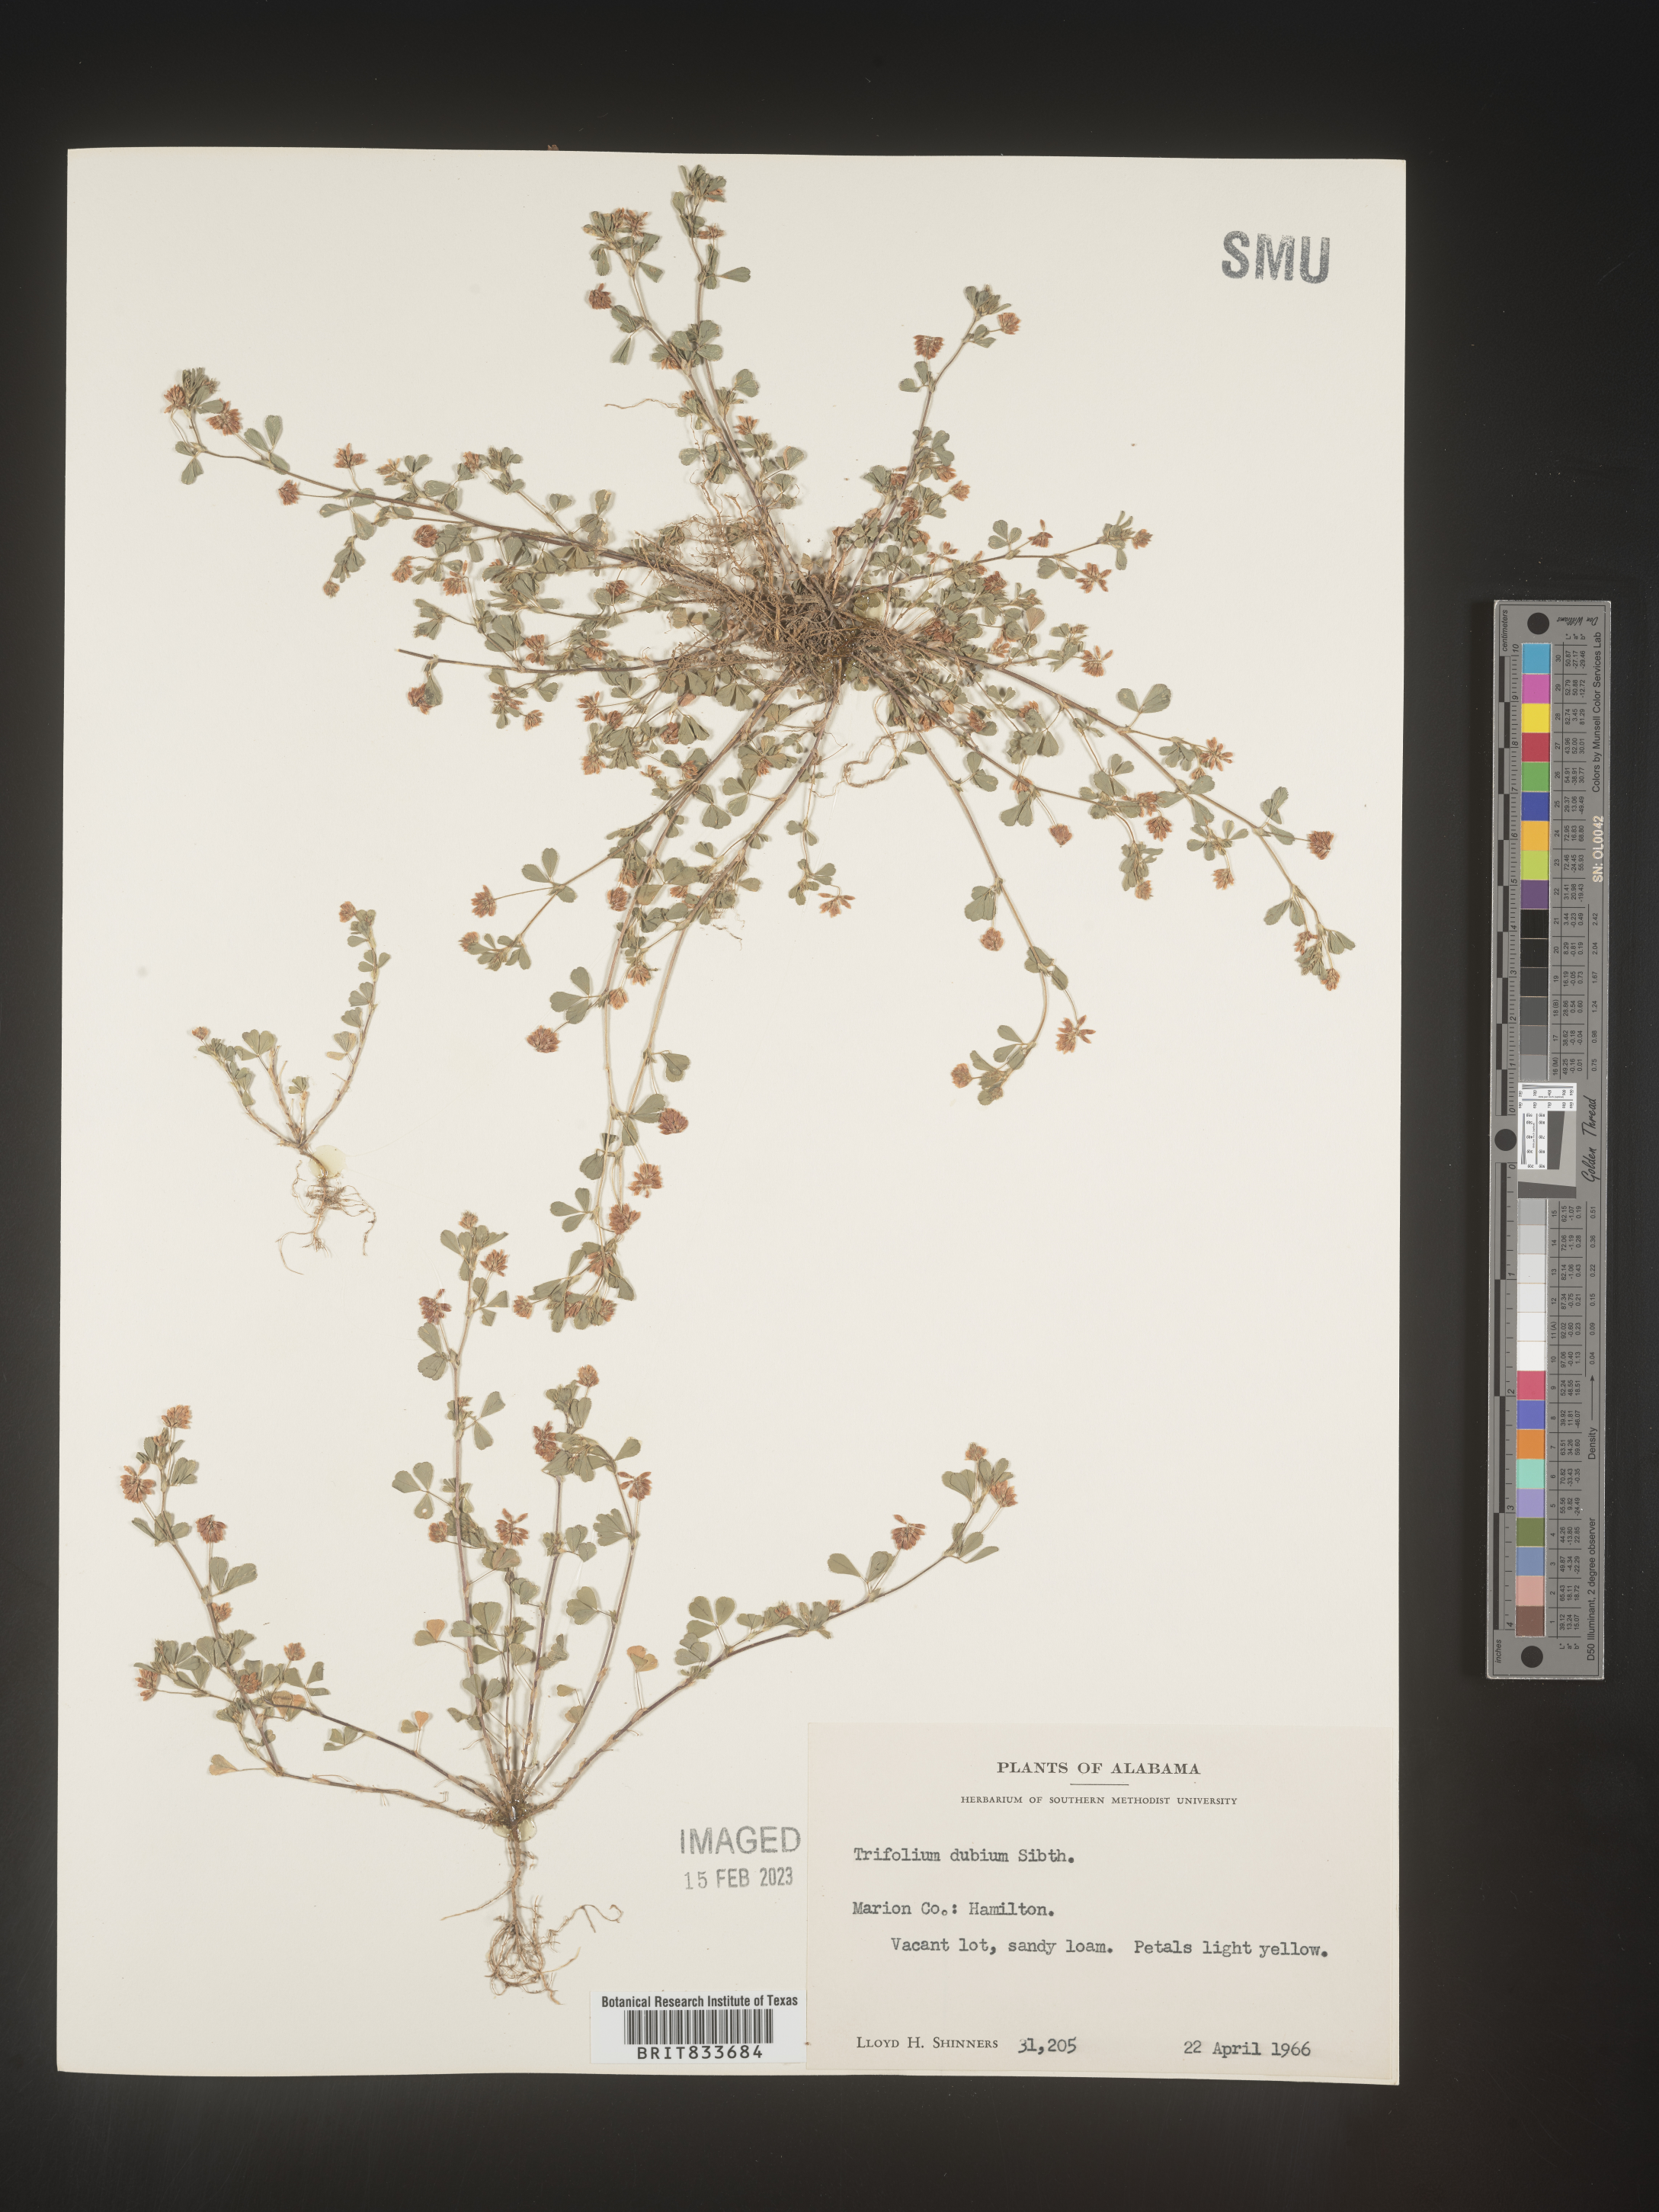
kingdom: Plantae
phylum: Tracheophyta
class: Magnoliopsida
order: Fabales
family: Fabaceae
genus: Trifolium
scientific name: Trifolium dubium
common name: Suckling clover
